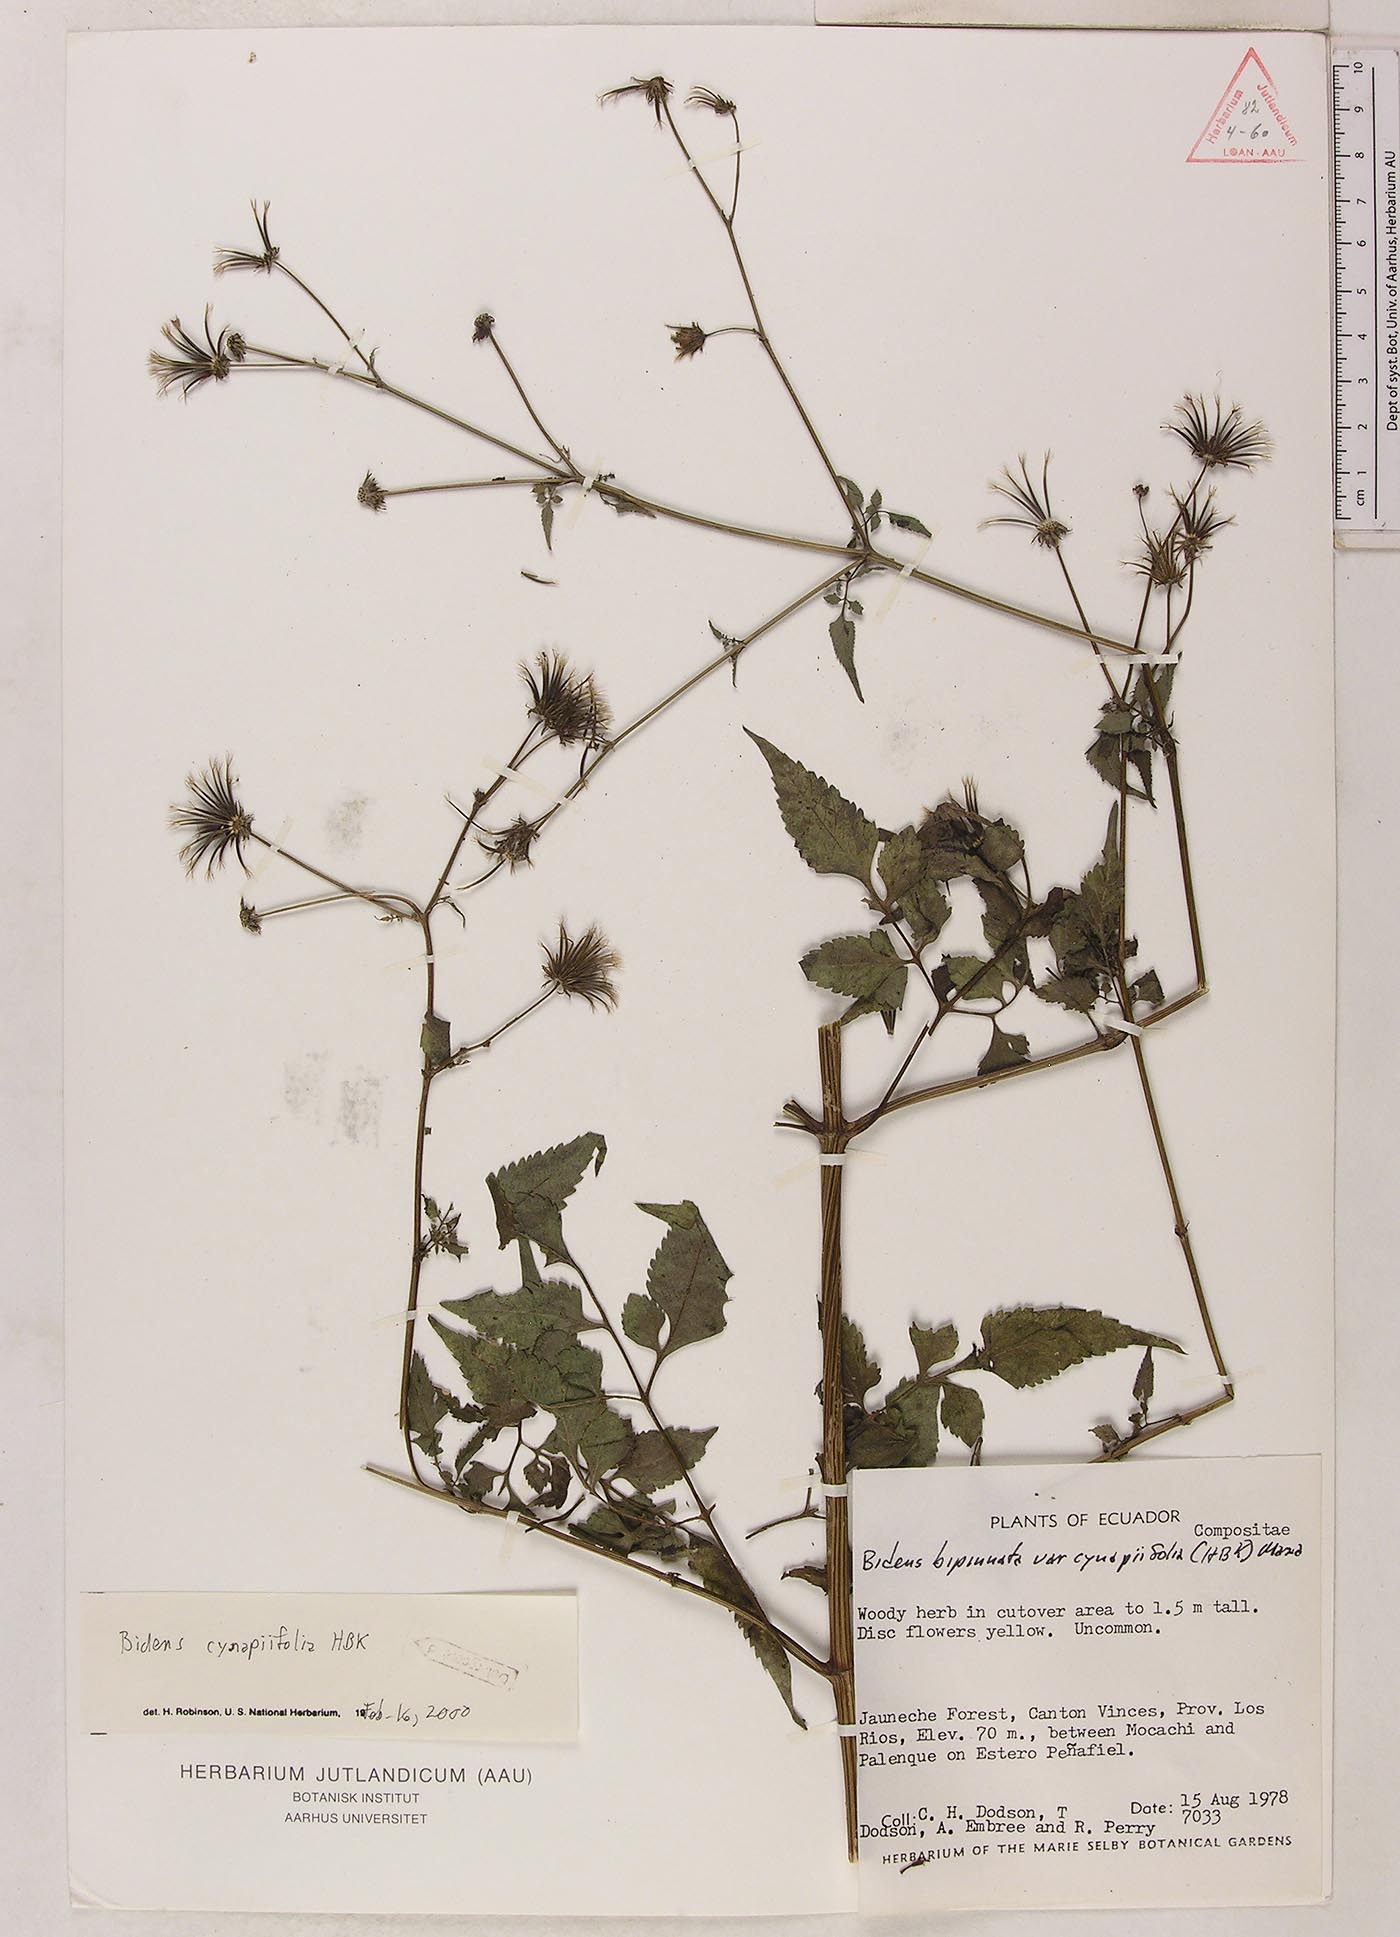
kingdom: Plantae
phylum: Tracheophyta
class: Magnoliopsida
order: Asterales
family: Asteraceae
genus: Bidens
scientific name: Bidens cynapiifolia
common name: Beggar's tick
